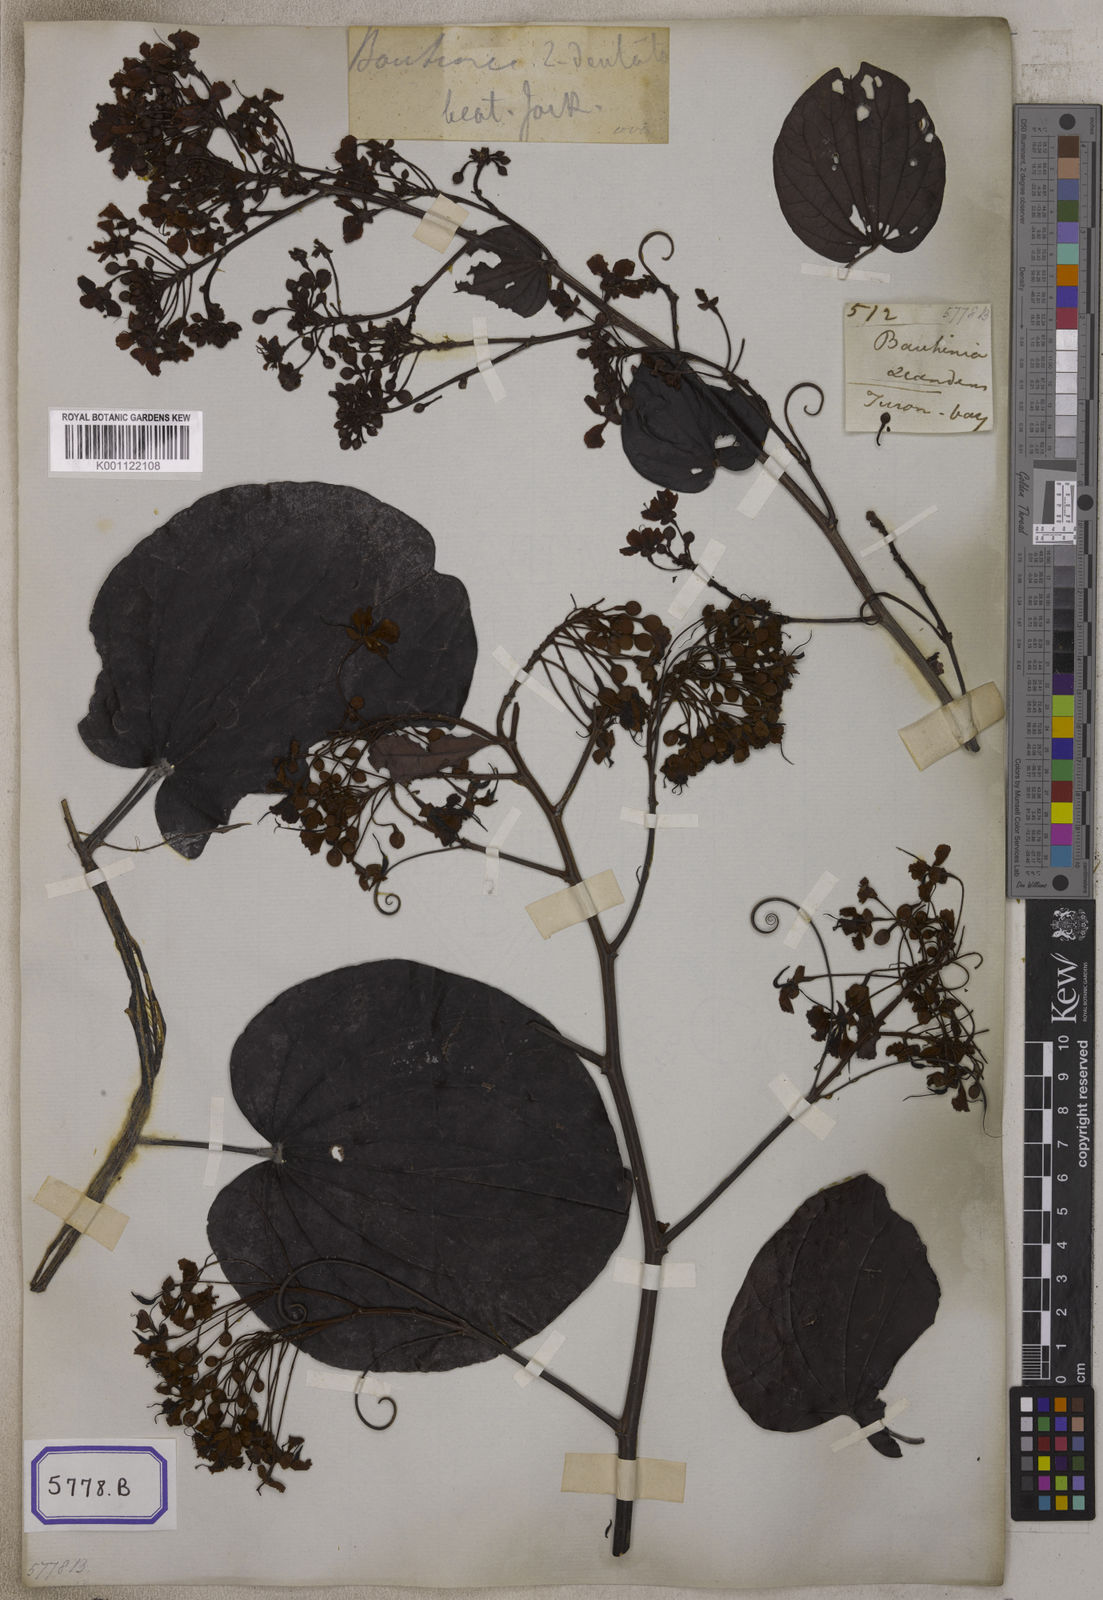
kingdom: Plantae
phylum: Tracheophyta
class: Magnoliopsida
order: Fabales
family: Fabaceae
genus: Phanera
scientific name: Phanera bidentata
